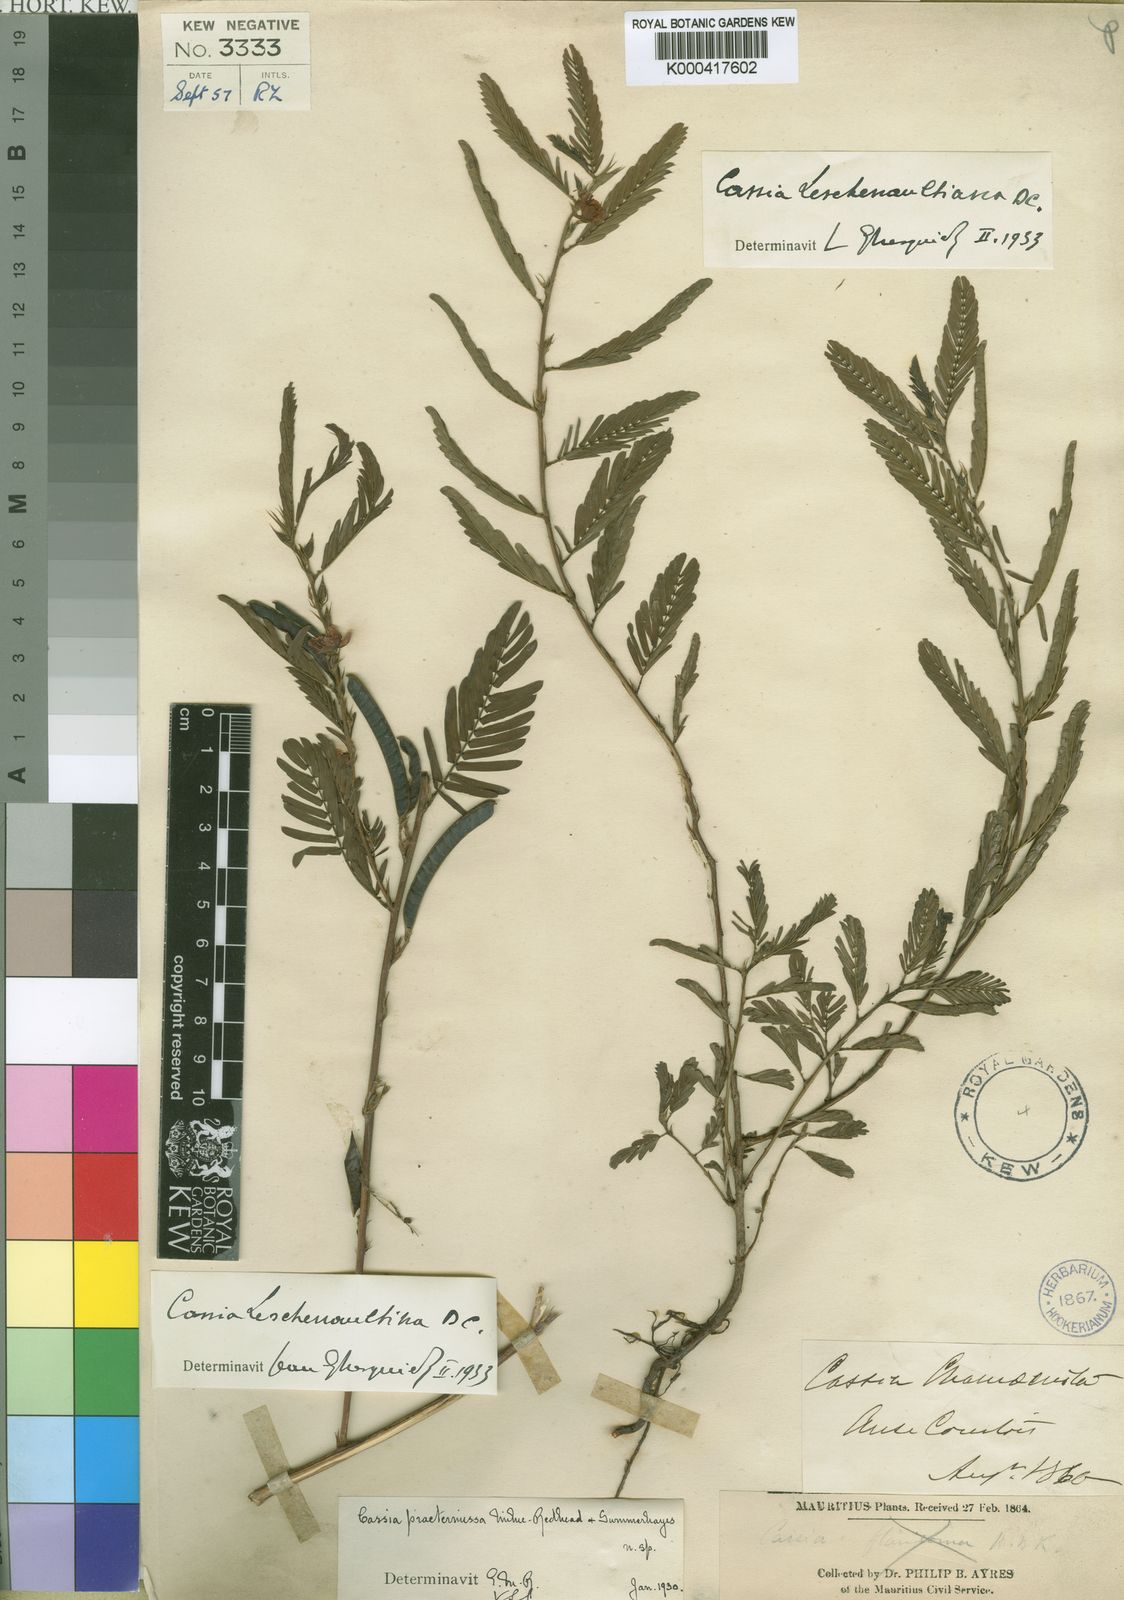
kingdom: Plantae
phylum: Tracheophyta
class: Magnoliopsida
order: Fabales
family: Fabaceae
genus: Chamaecrista
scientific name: Chamaecrista leschenaultiana
